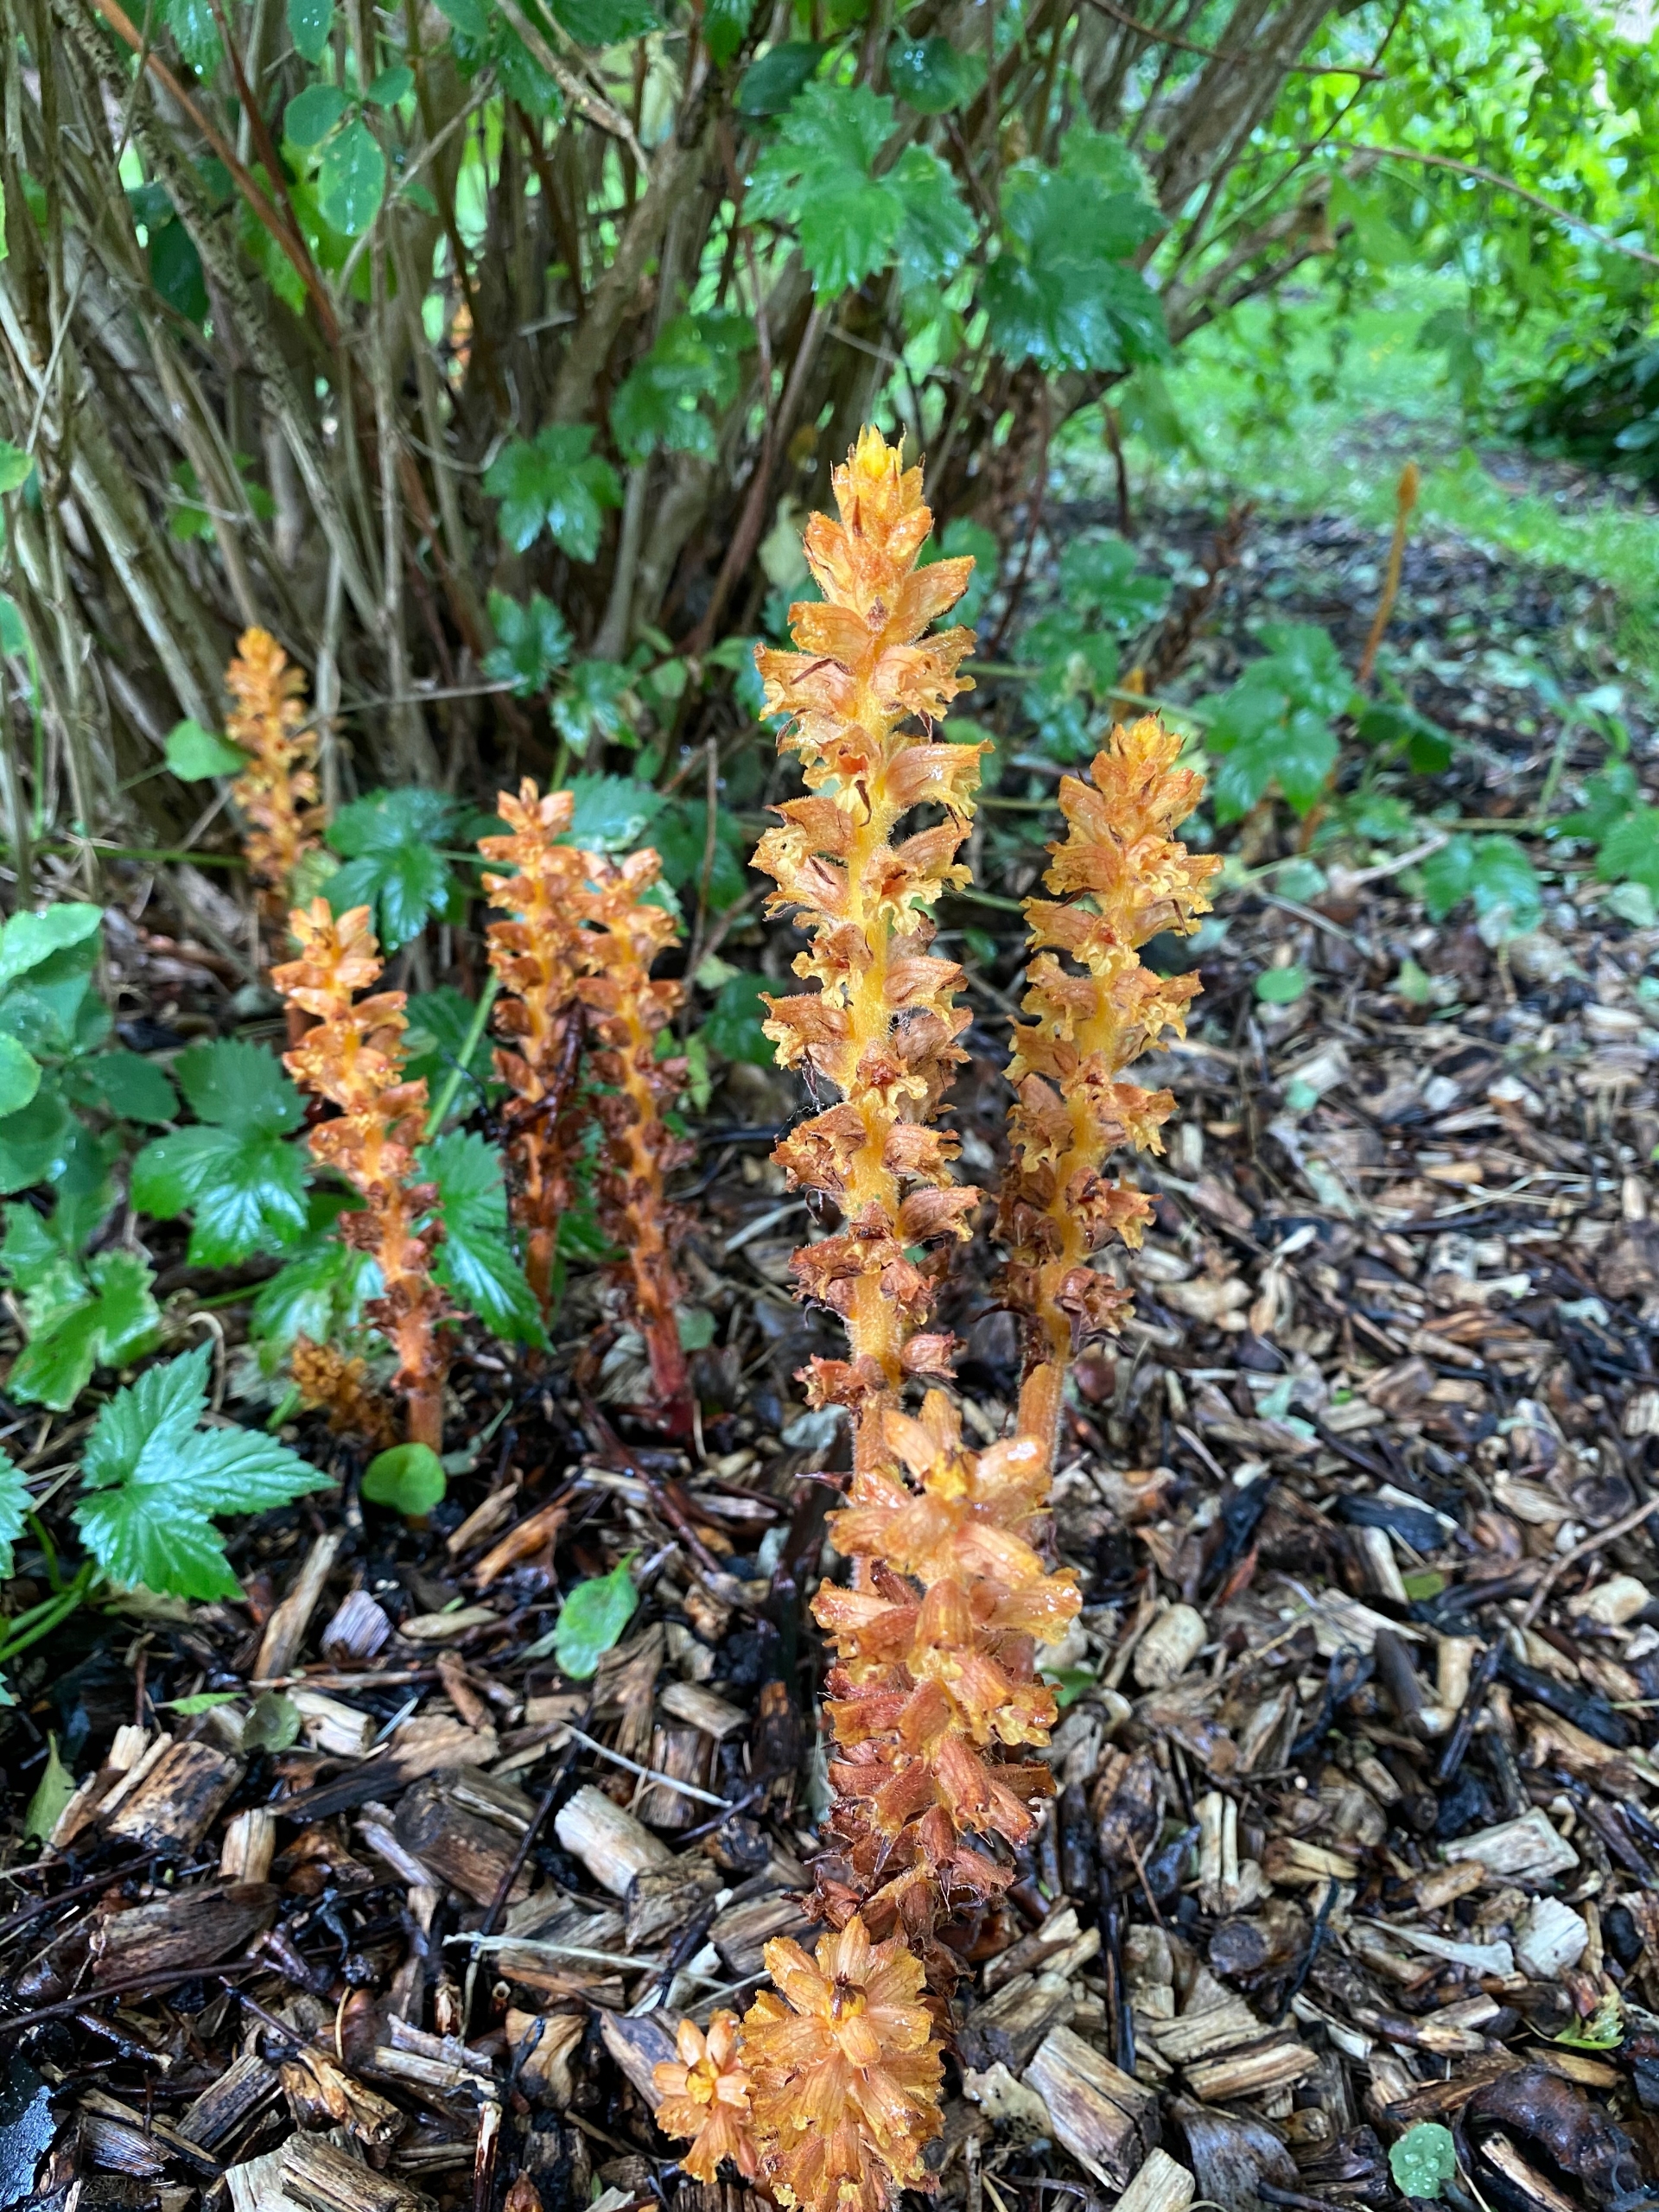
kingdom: Plantae
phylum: Tracheophyta
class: Magnoliopsida
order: Lamiales
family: Orobanchaceae
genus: Orobanche
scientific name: Orobanche lucorum
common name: Berberis-gyvelkvæler
